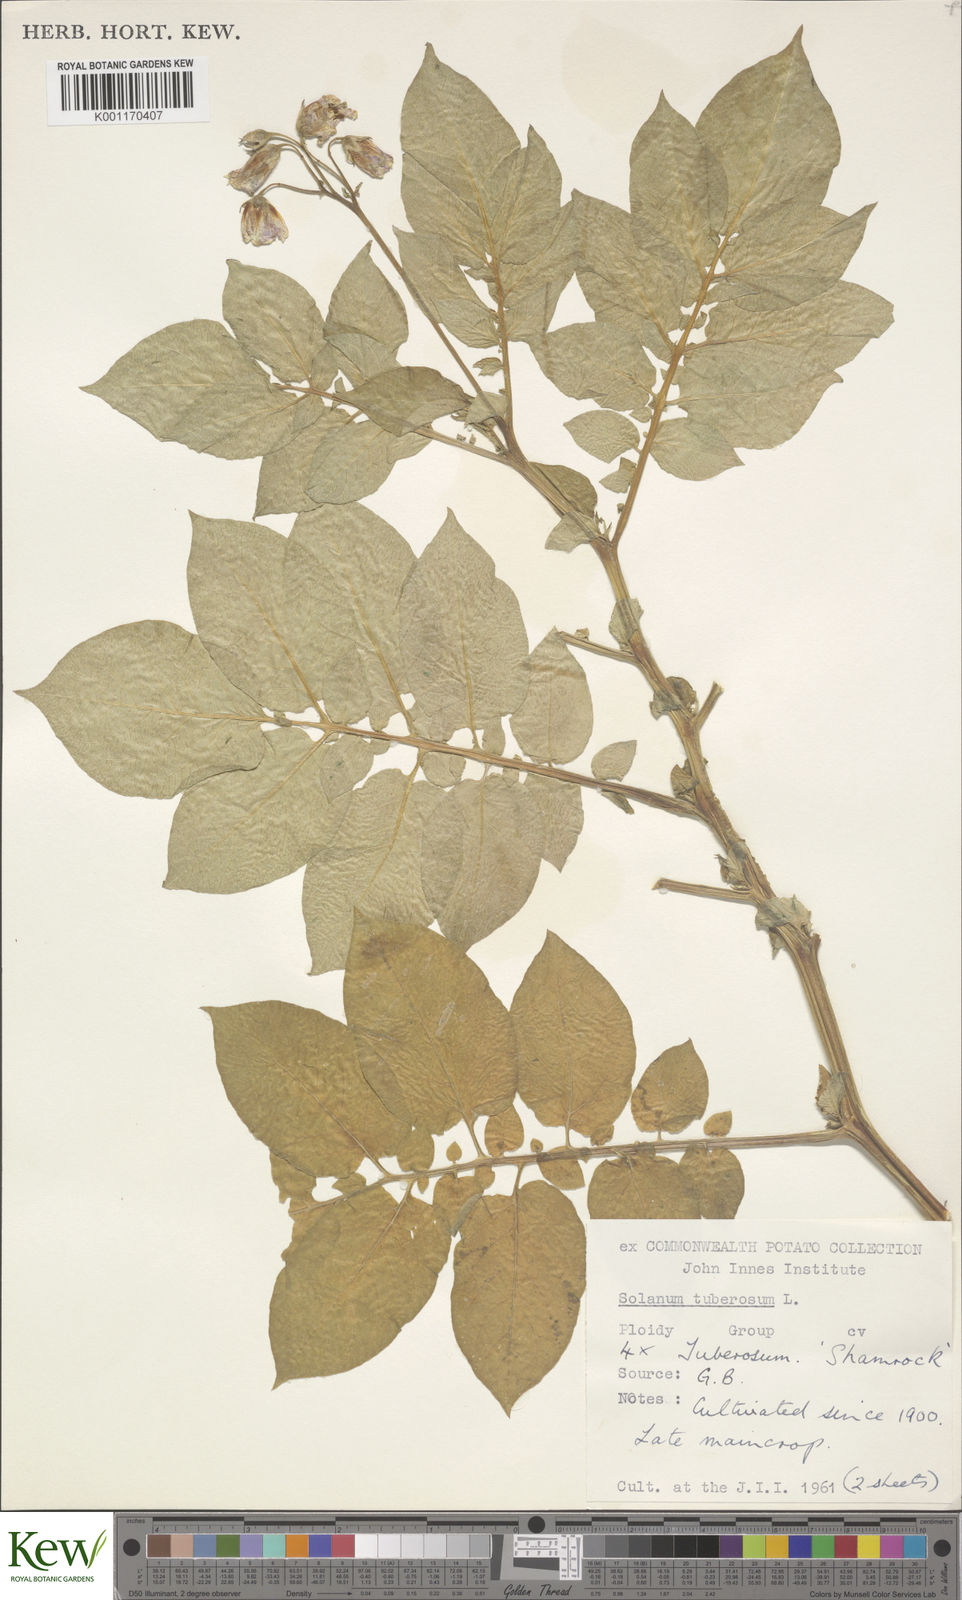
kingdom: Plantae
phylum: Tracheophyta
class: Magnoliopsida
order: Solanales
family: Solanaceae
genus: Solanum
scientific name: Solanum tuberosum
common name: Potato
